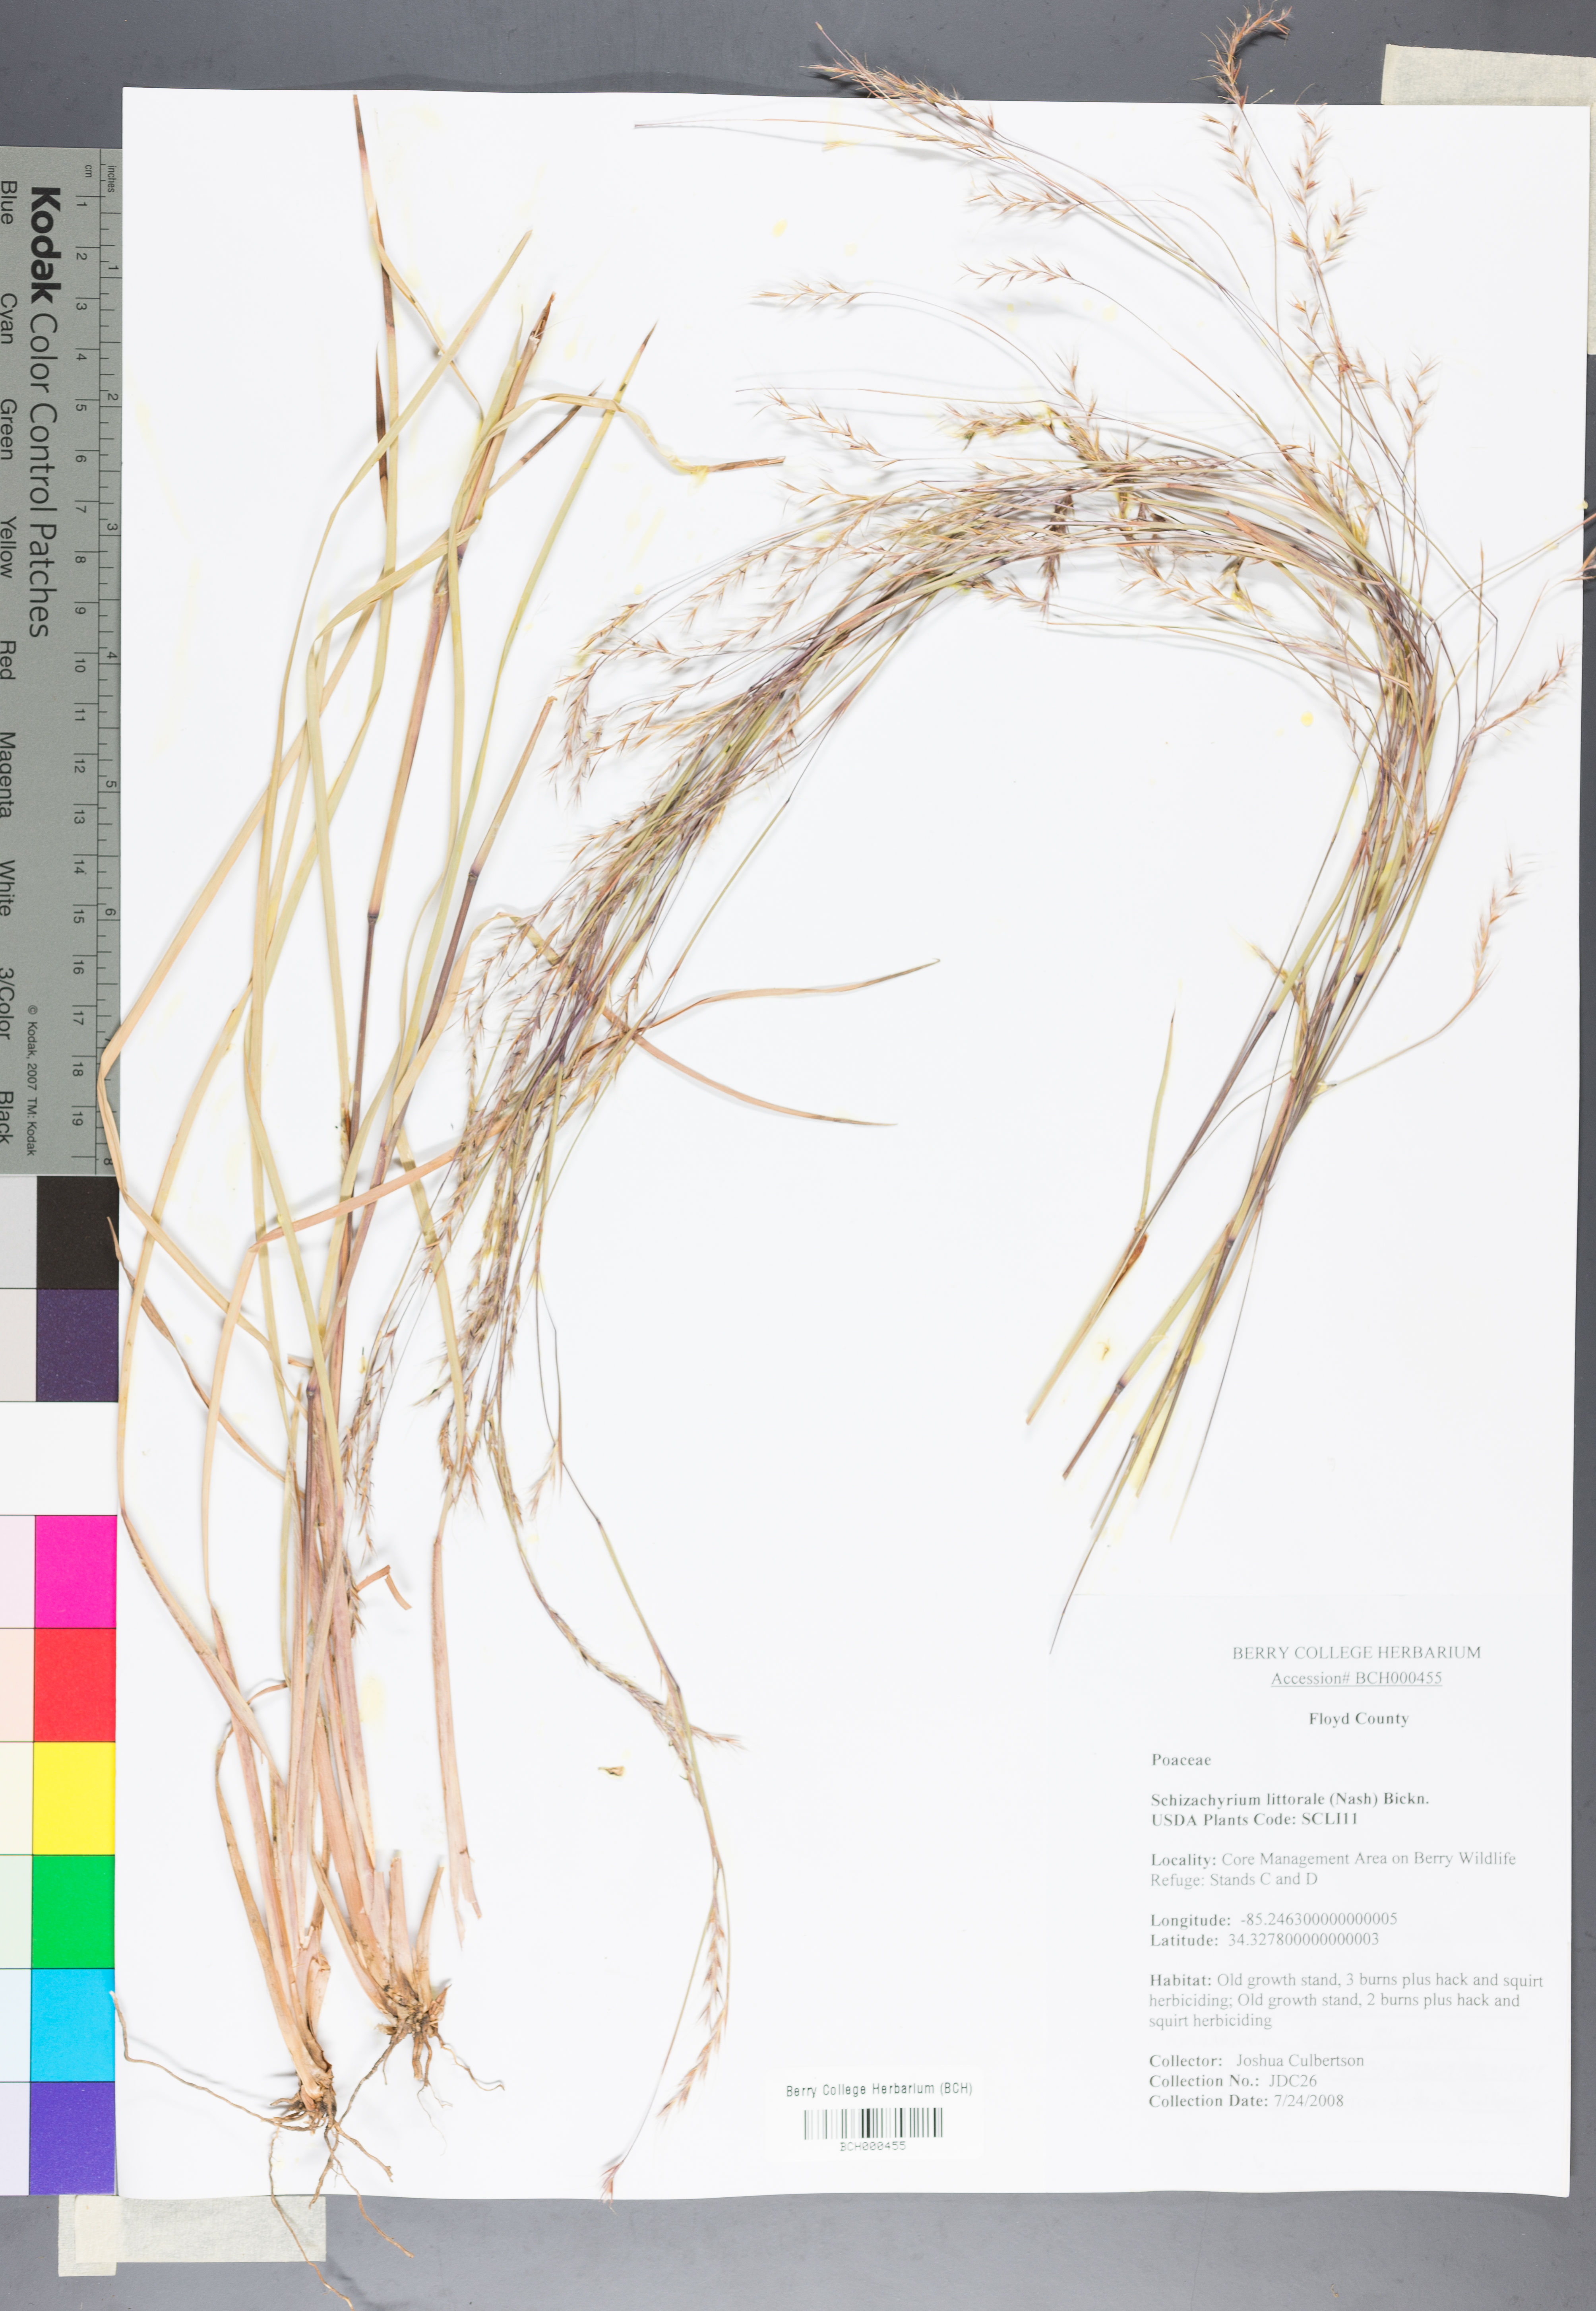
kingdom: Plantae
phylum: Tracheophyta
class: Liliopsida
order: Poales
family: Poaceae
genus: Schizachyrium
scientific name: Schizachyrium scoparium
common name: Little bluestem
